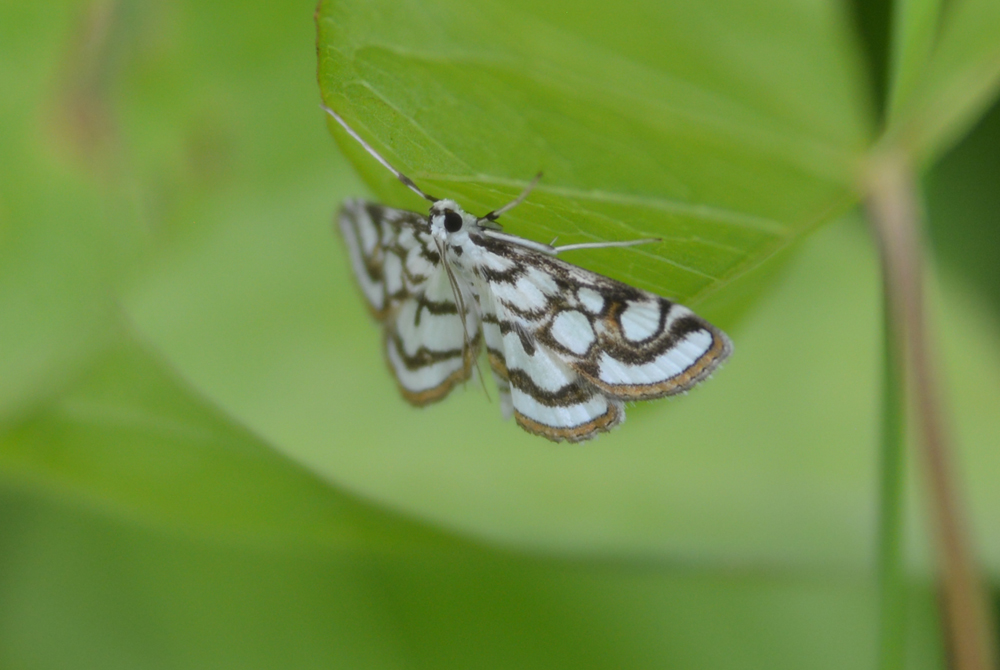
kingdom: Animalia
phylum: Arthropoda
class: Insecta
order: Lepidoptera
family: Crambidae
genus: Nymphula
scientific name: Nymphula nitidulata
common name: Beautiful china mark
